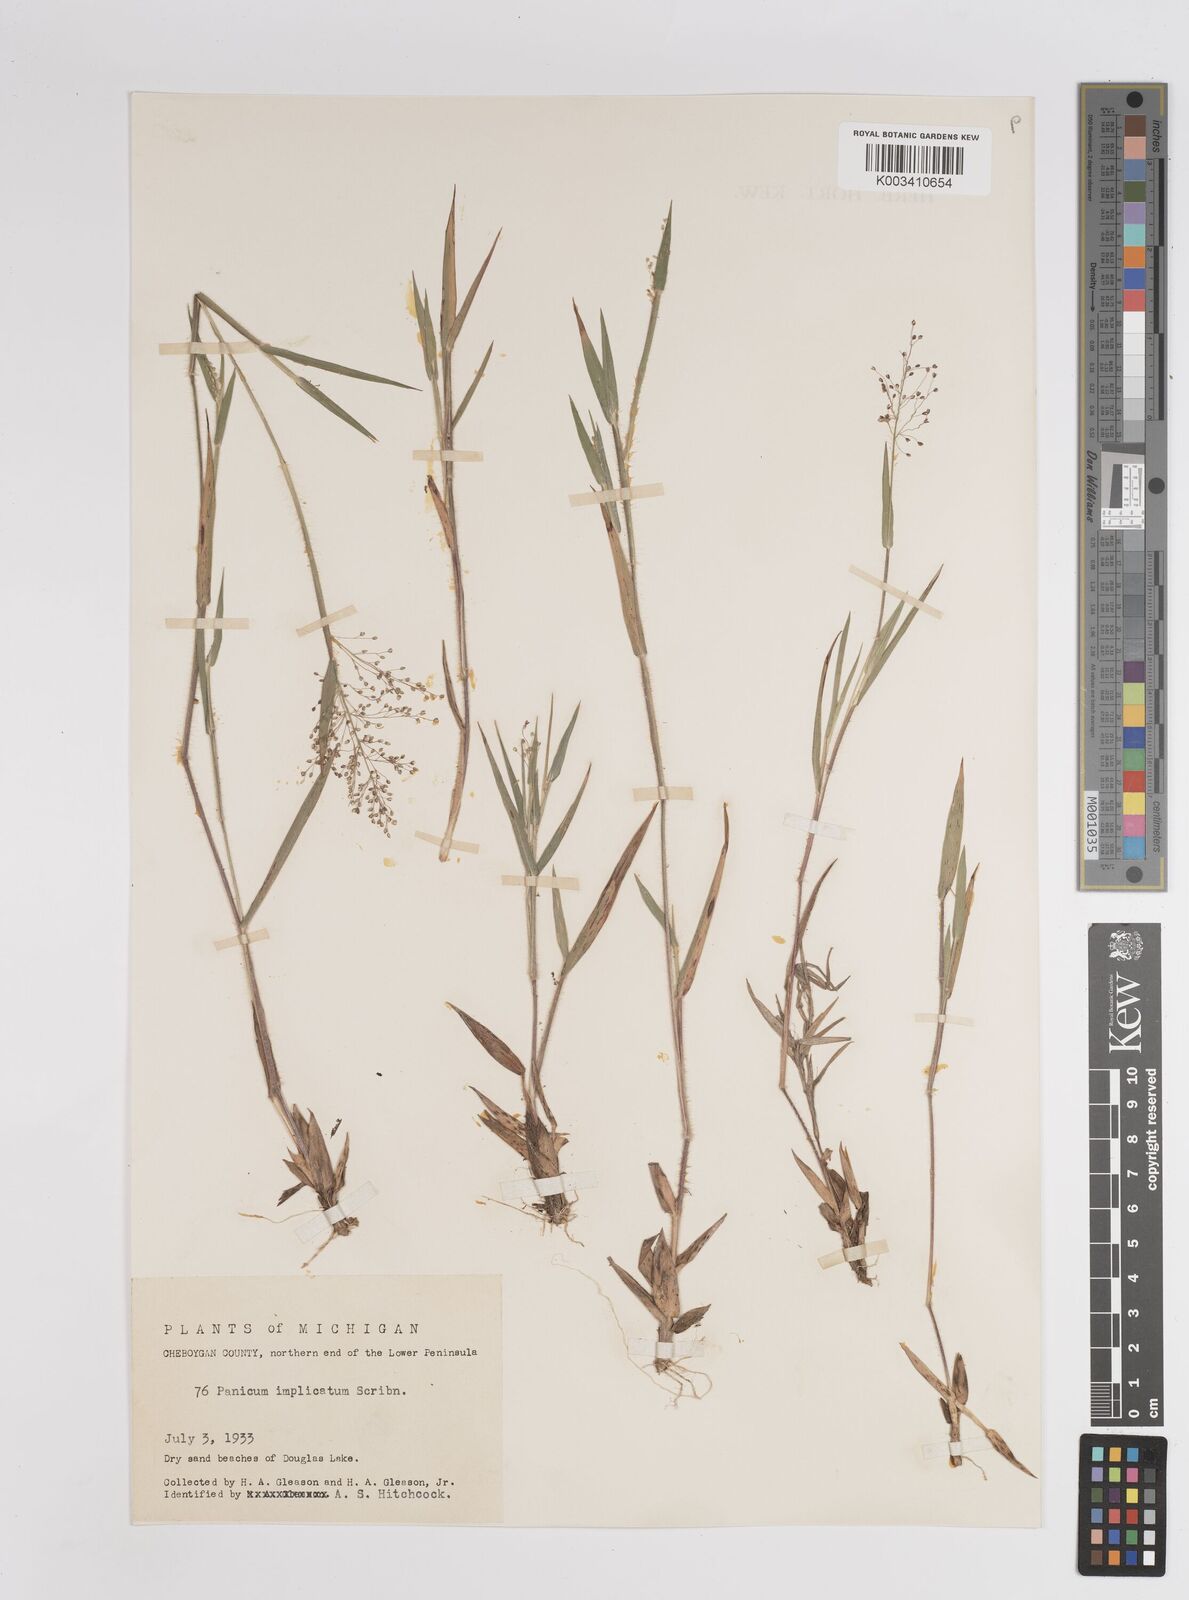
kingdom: Plantae
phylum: Tracheophyta
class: Liliopsida
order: Poales
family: Poaceae
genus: Dichanthelium
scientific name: Dichanthelium implicatum
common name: Slender-stemmed panicgrass
